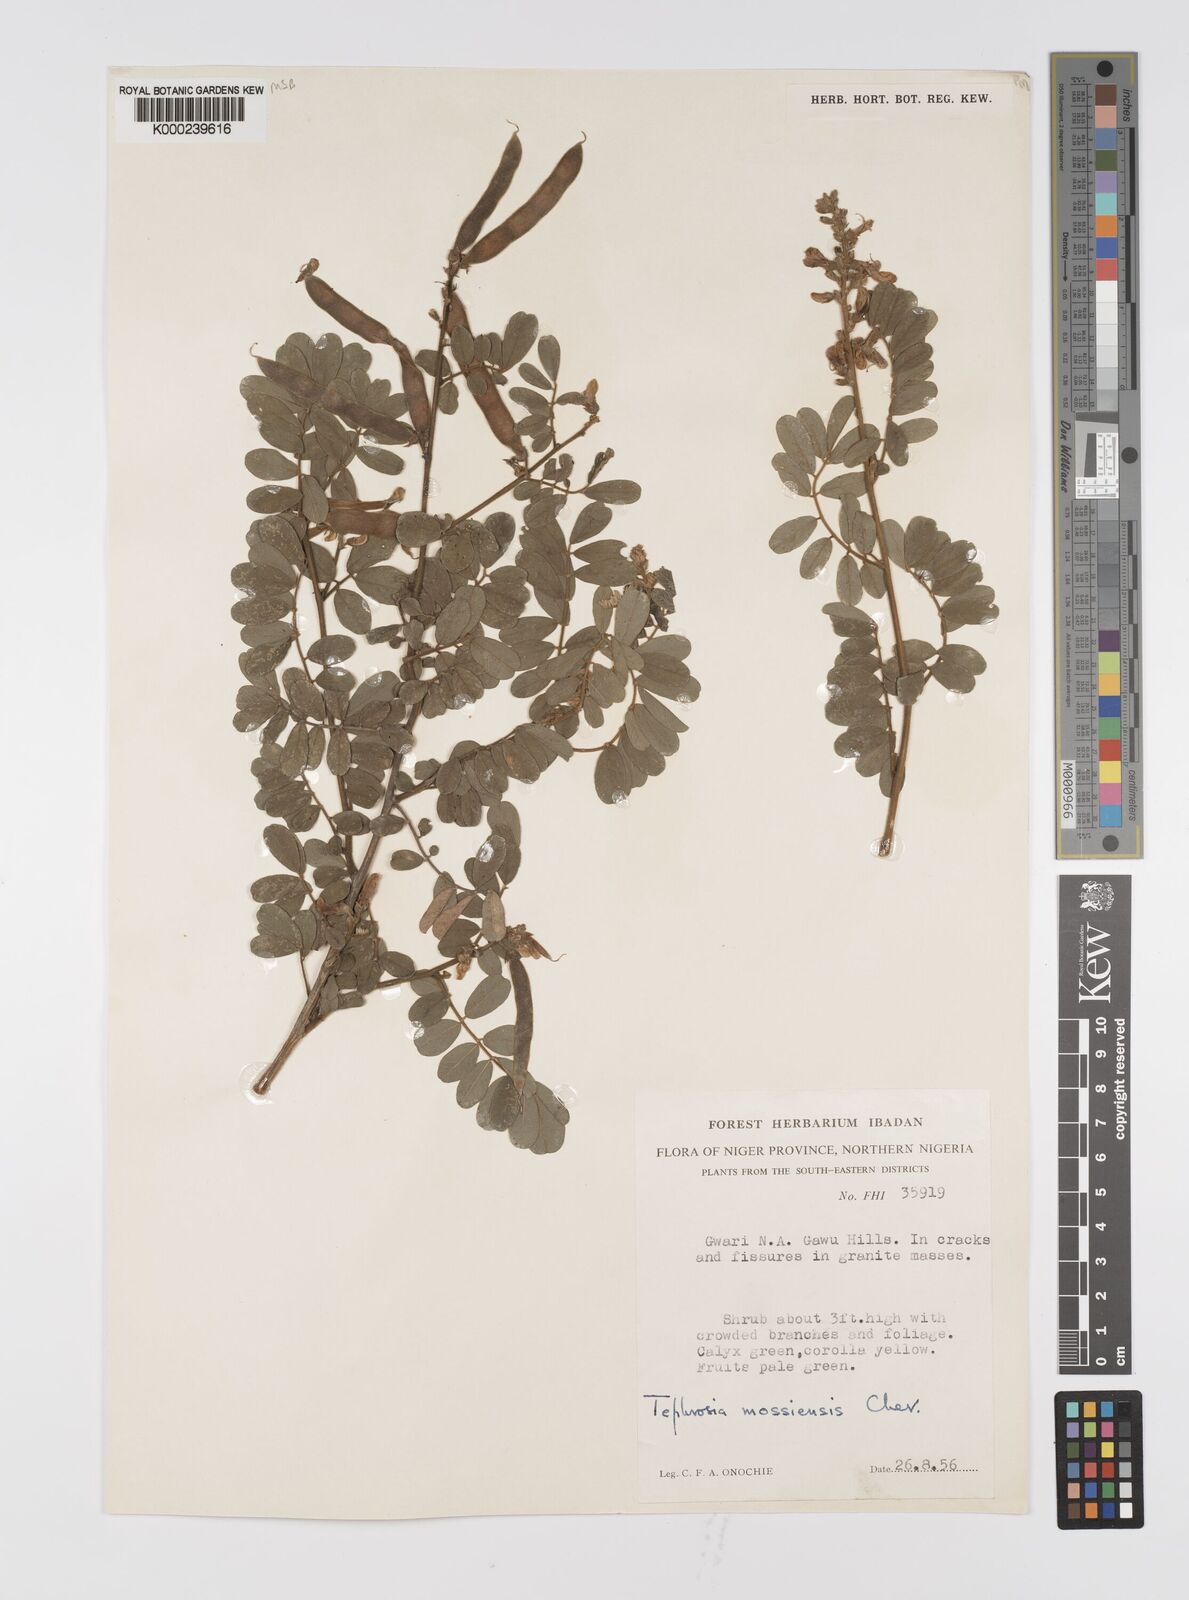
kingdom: Plantae
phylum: Tracheophyta
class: Magnoliopsida
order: Fabales
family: Fabaceae
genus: Tephrosia
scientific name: Tephrosia mossiensis
